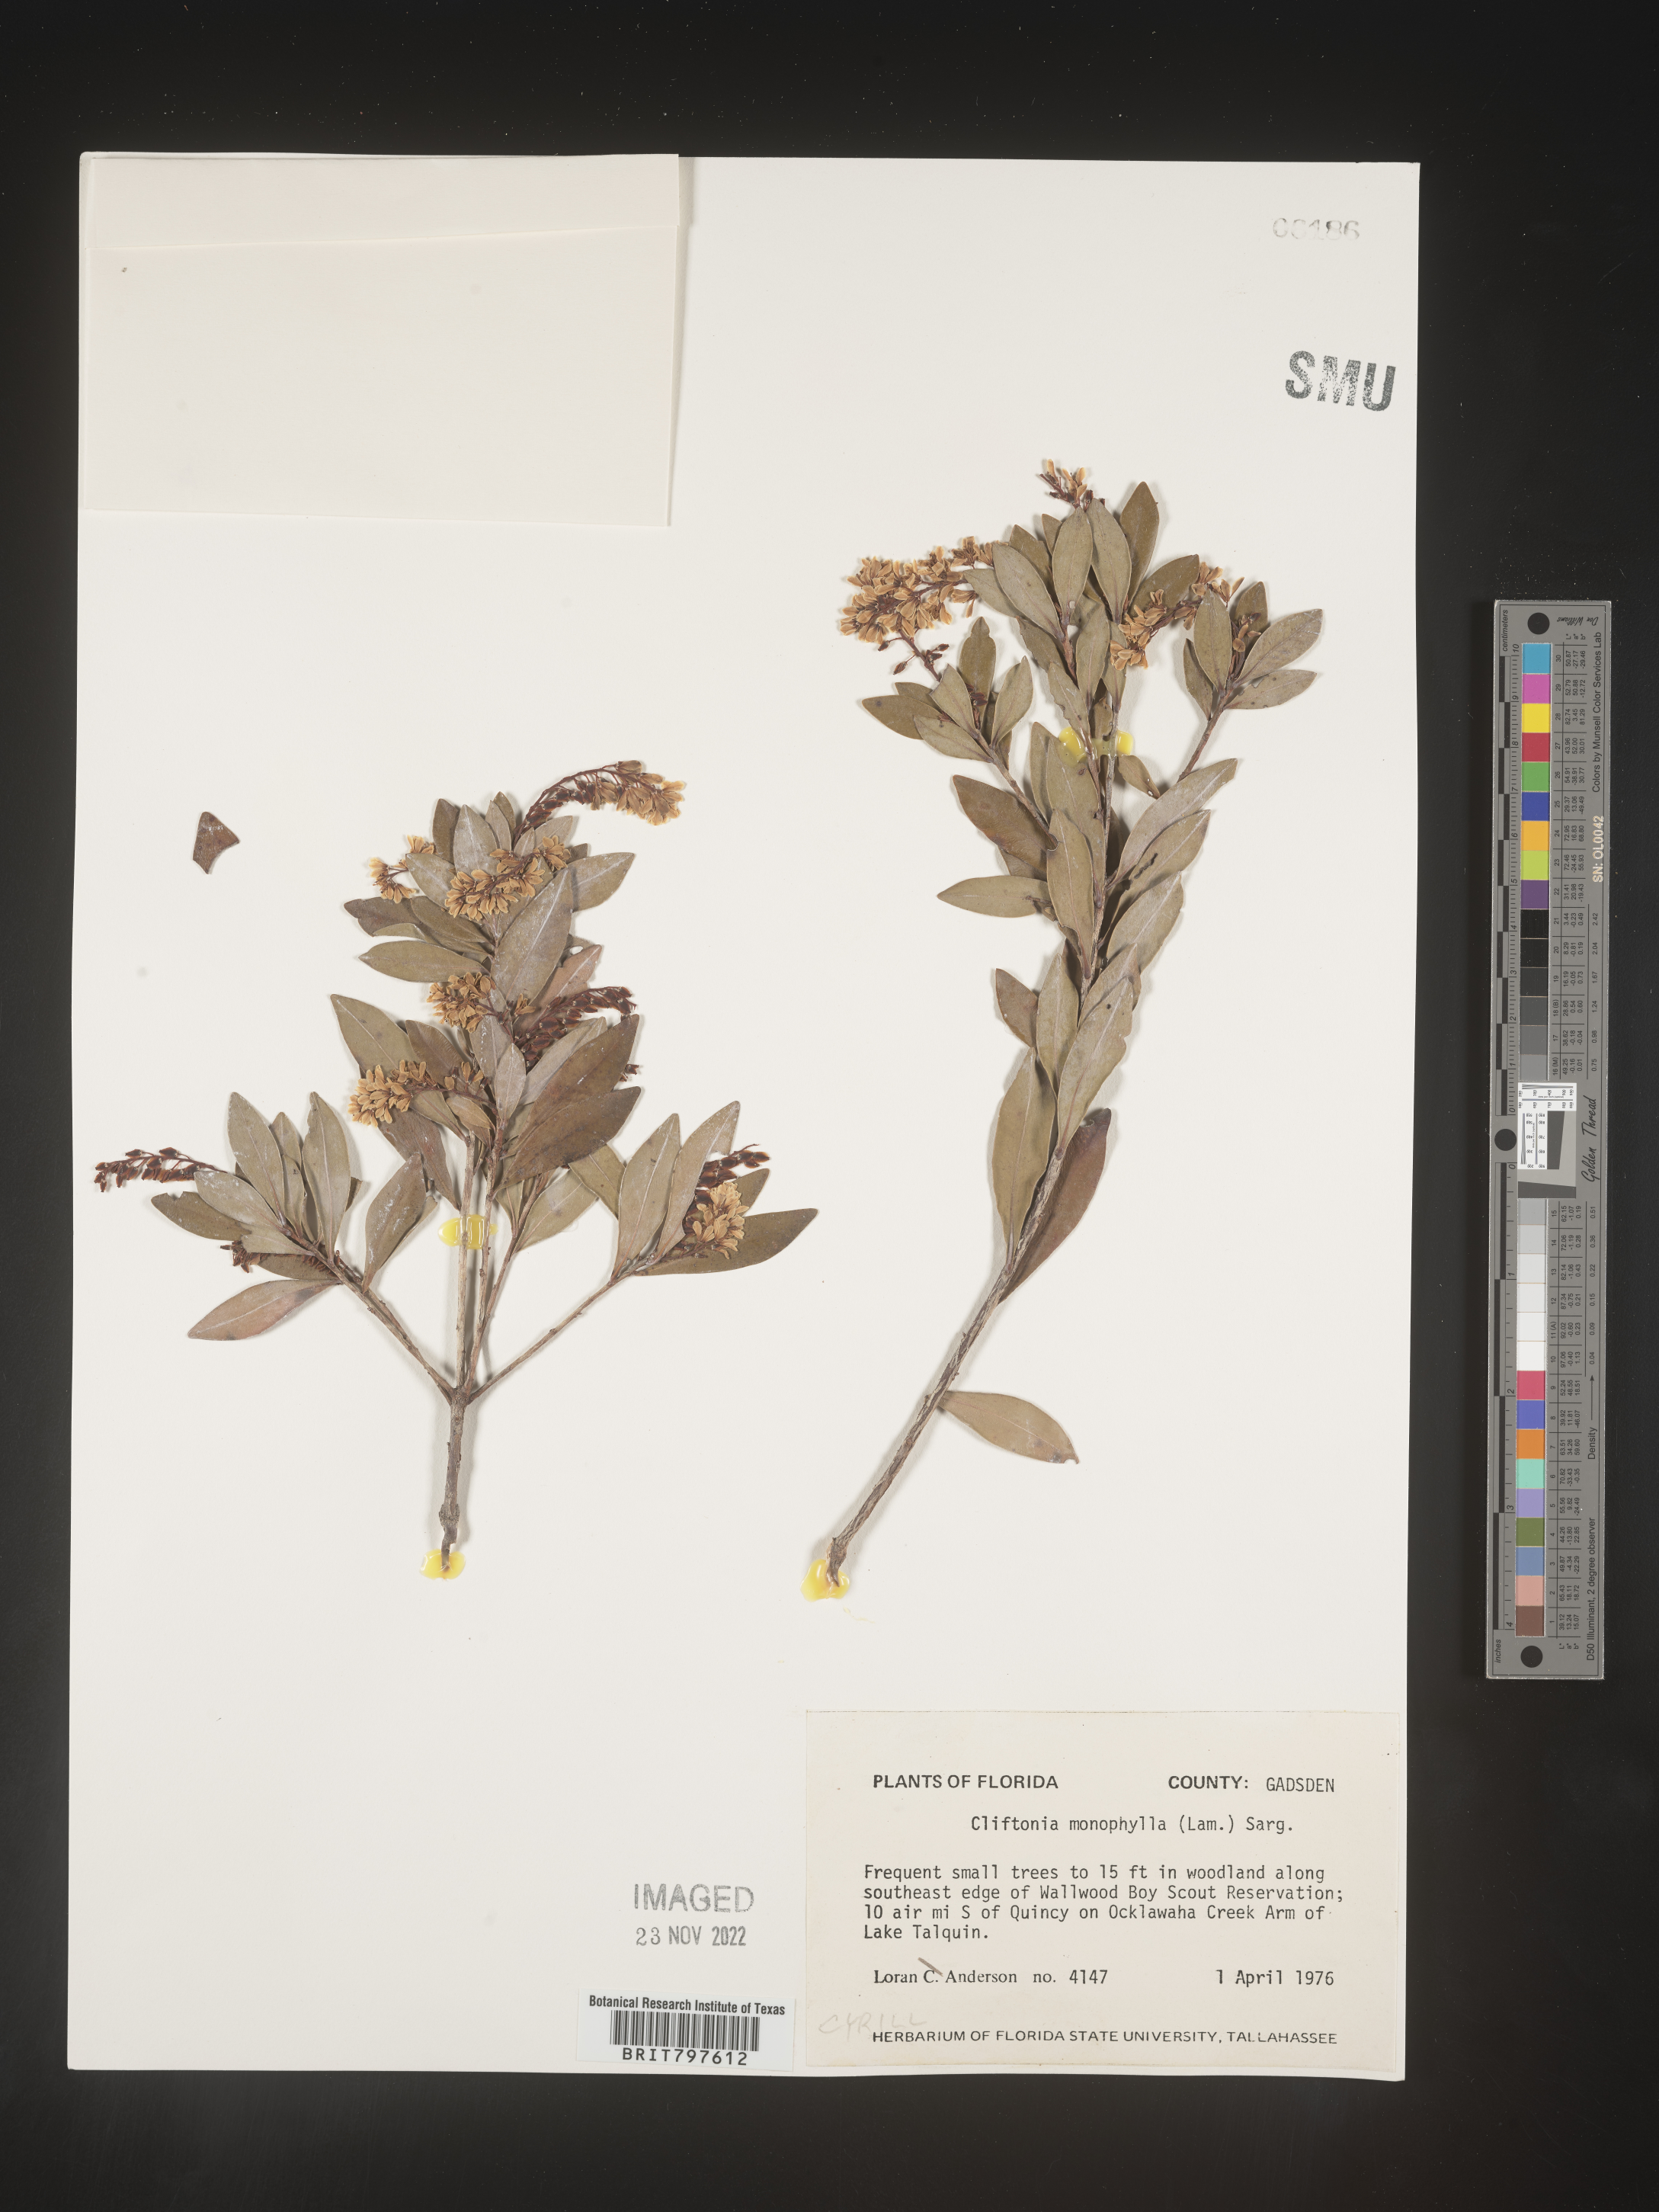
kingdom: Plantae
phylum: Tracheophyta
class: Magnoliopsida
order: Ericales
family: Cyrillaceae
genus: Cliftonia
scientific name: Cliftonia monophylla
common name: Titi
